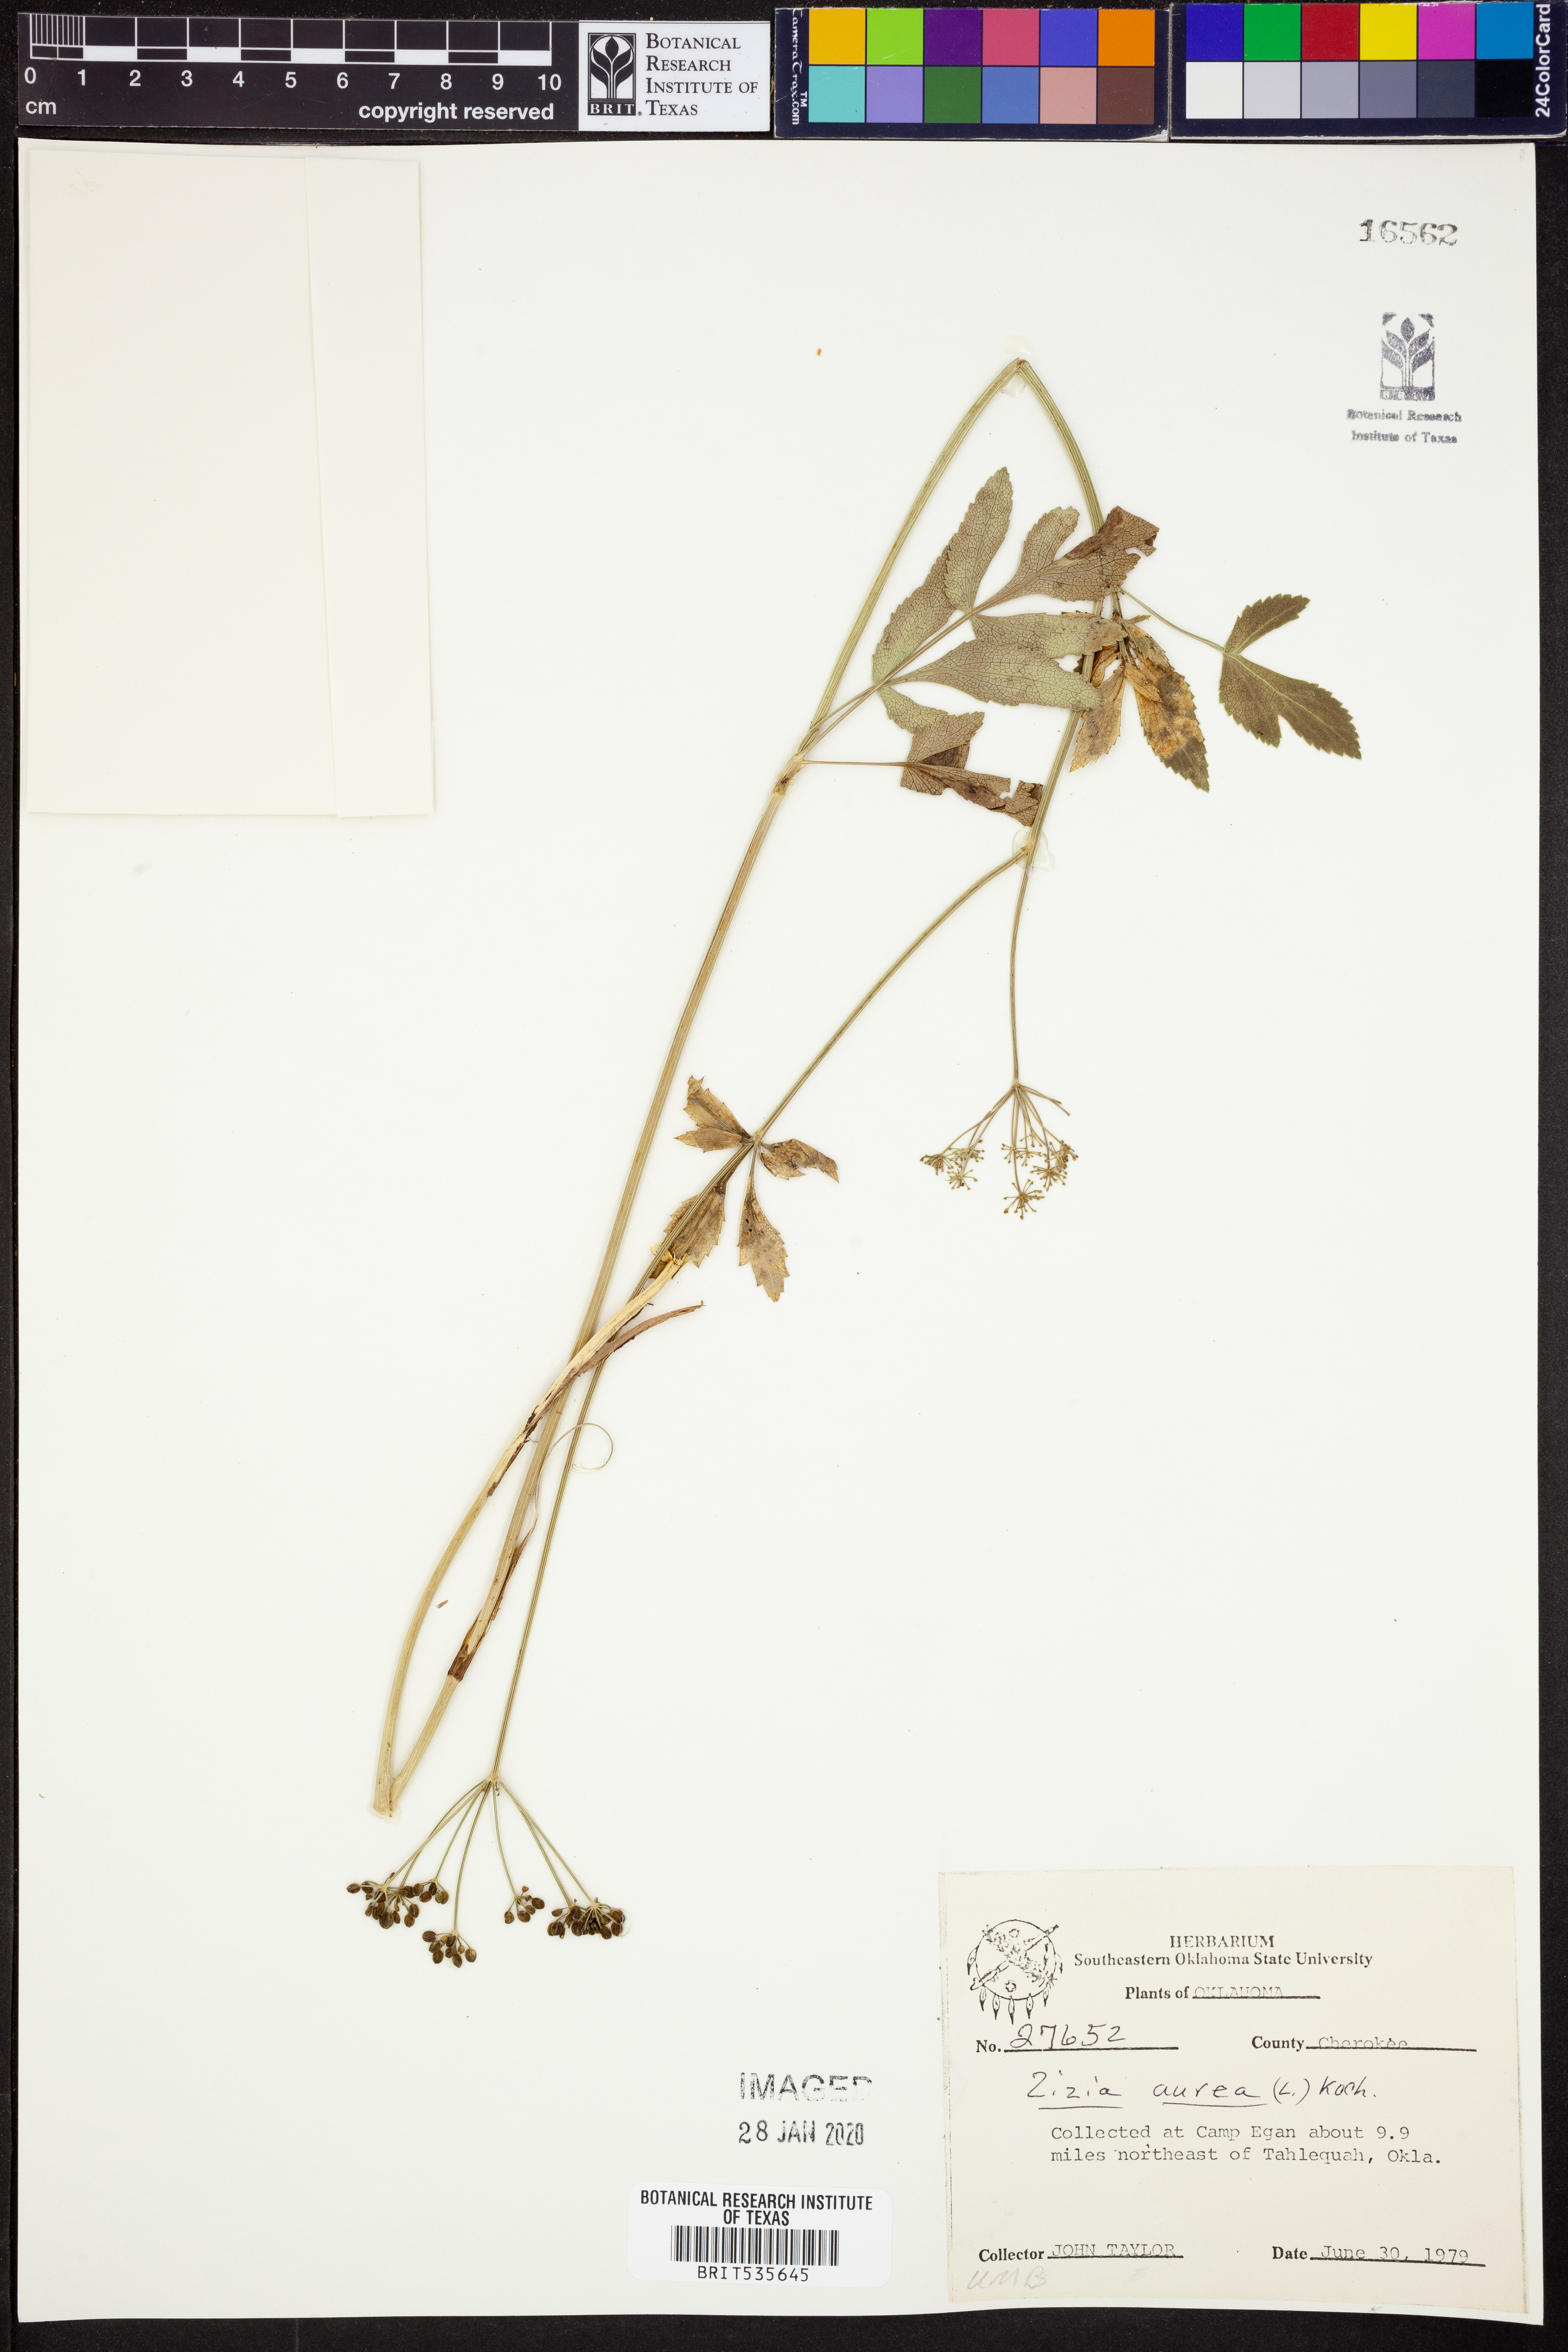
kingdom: Plantae
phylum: Tracheophyta
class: Magnoliopsida
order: Apiales
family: Apiaceae
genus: Zizia
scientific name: Zizia aurea
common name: Golden alexanders
